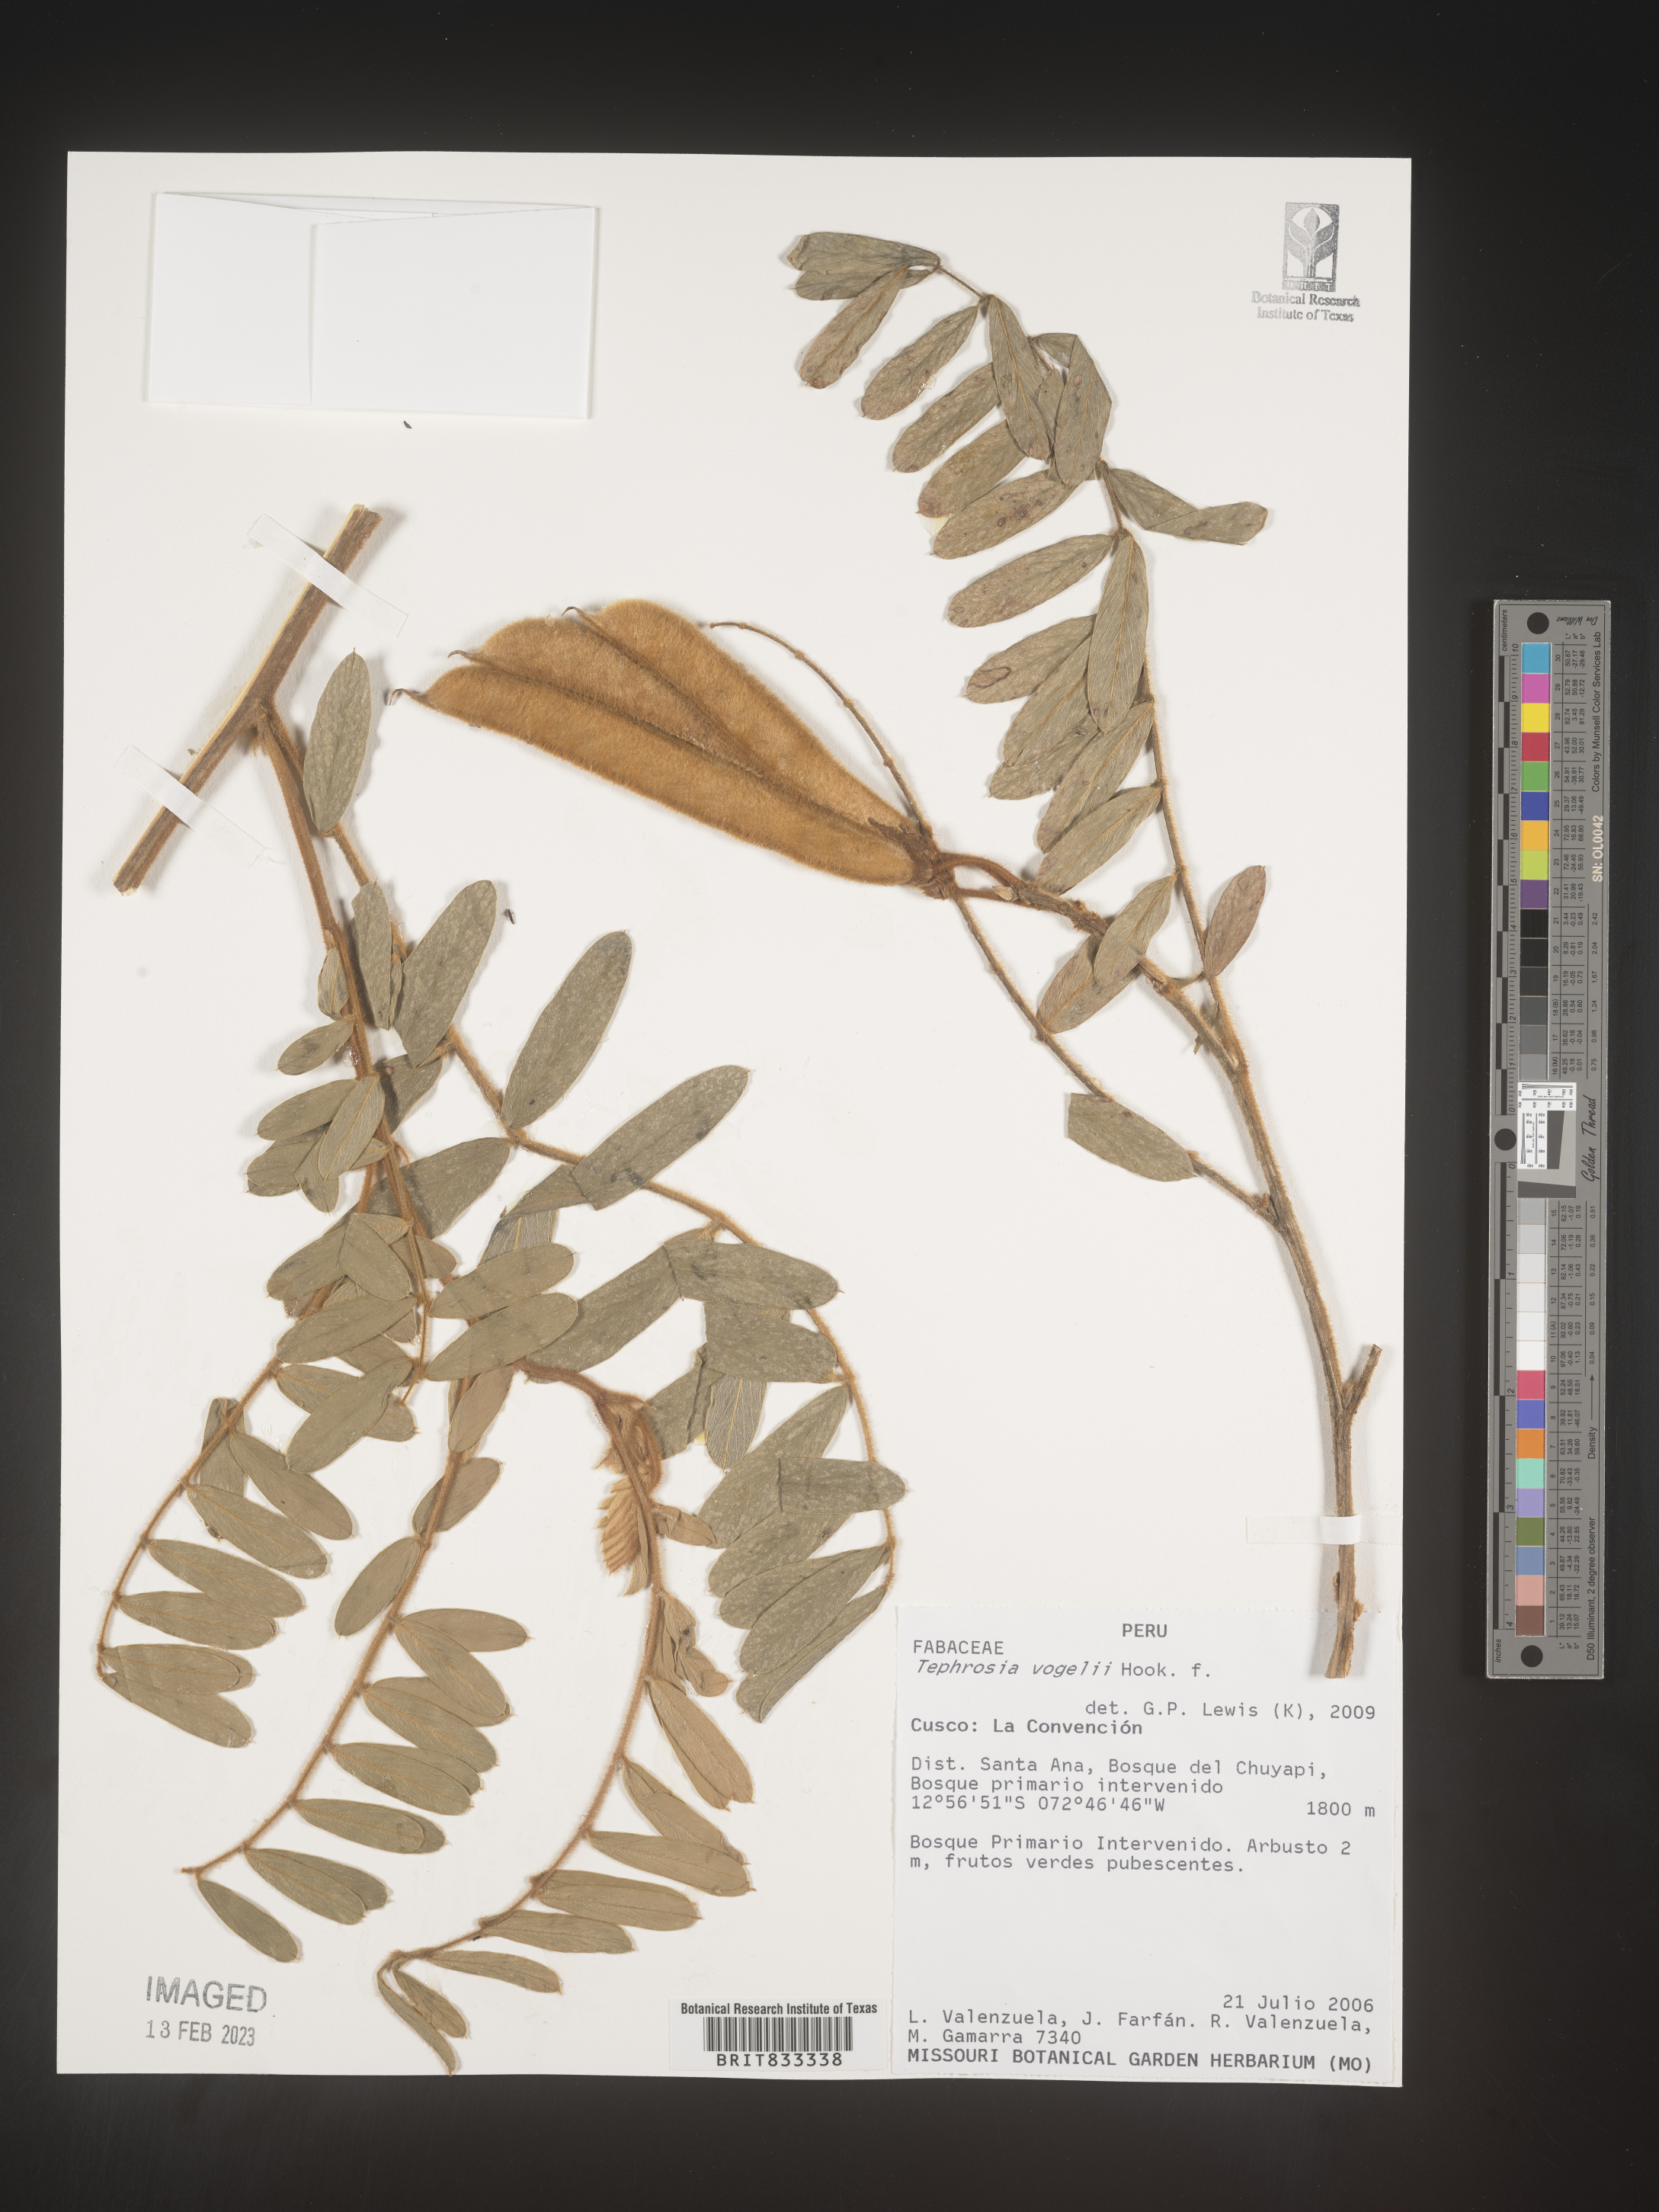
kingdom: Plantae
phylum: Tracheophyta
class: Magnoliopsida
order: Fabales
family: Fabaceae
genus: Tephrosia
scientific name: Tephrosia
